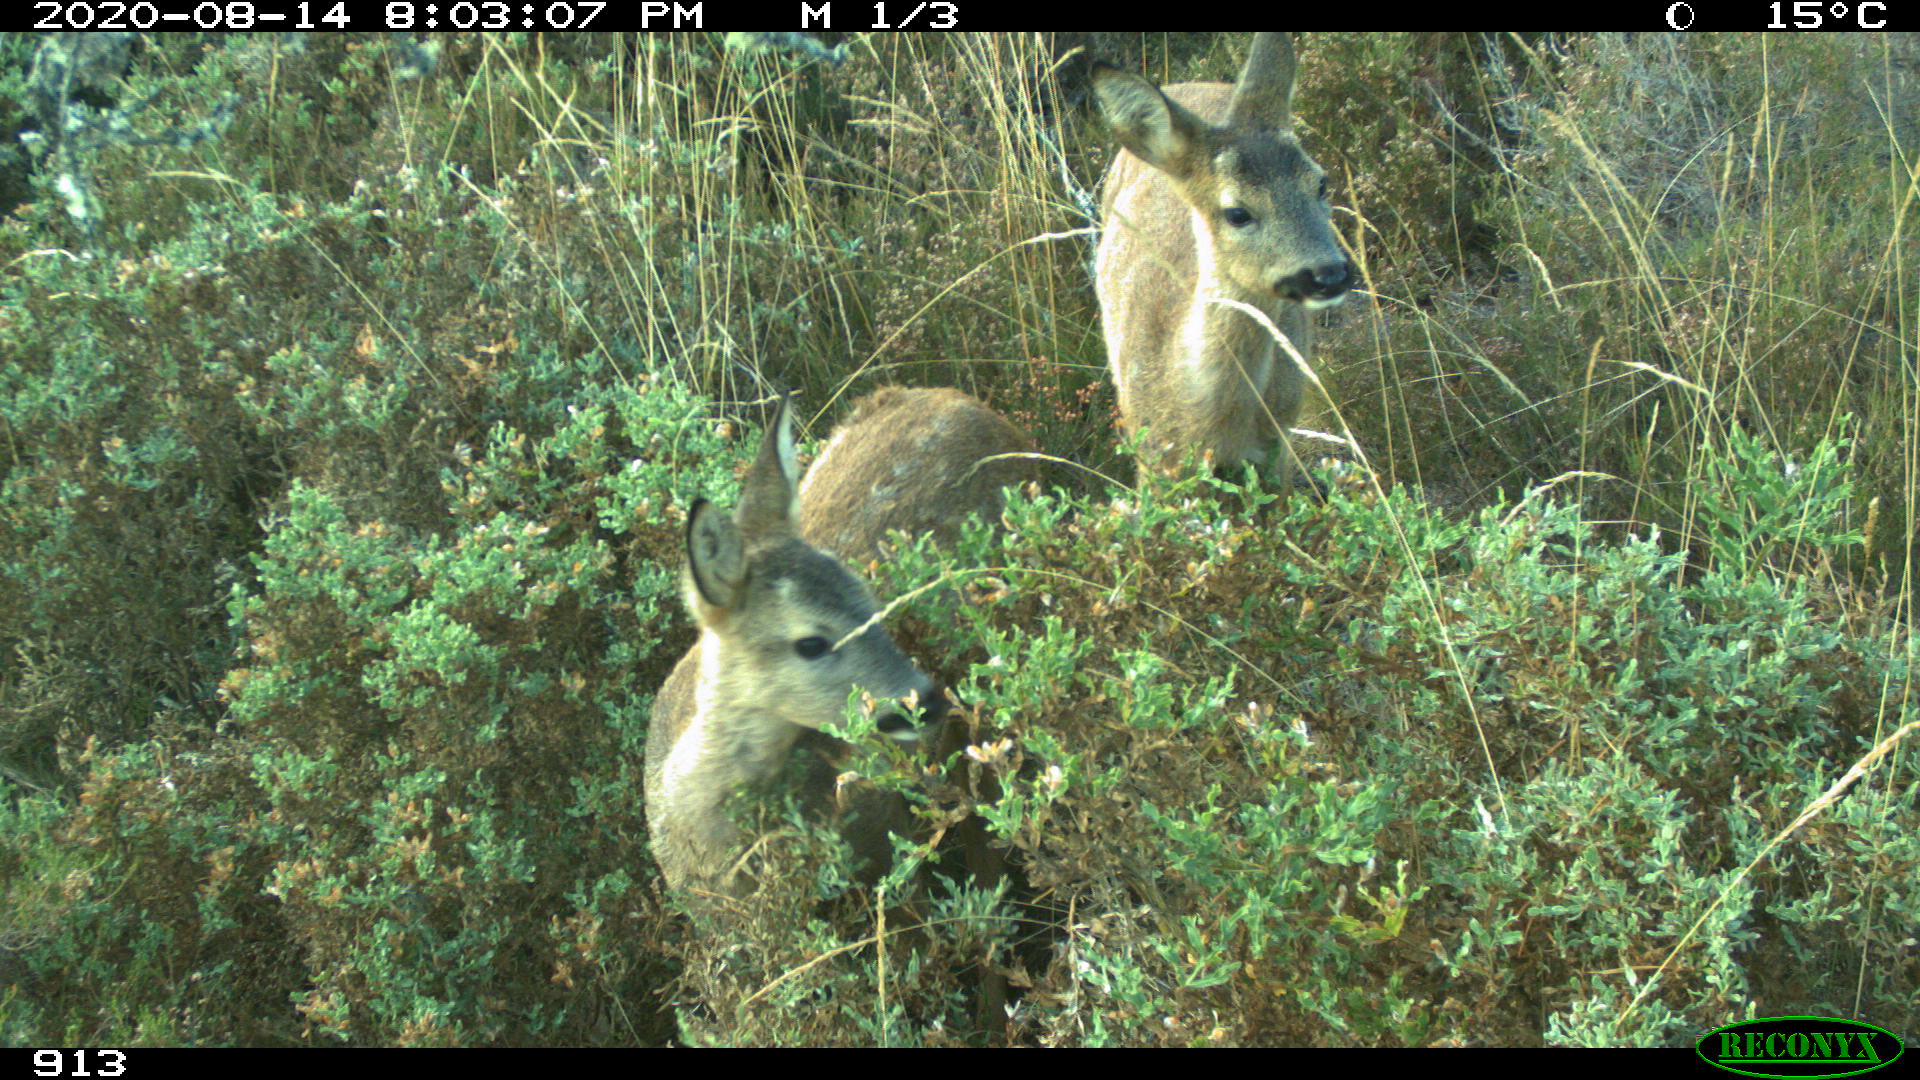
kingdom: Animalia
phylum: Chordata
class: Mammalia
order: Artiodactyla
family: Cervidae
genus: Capreolus
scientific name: Capreolus capreolus
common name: Western roe deer
